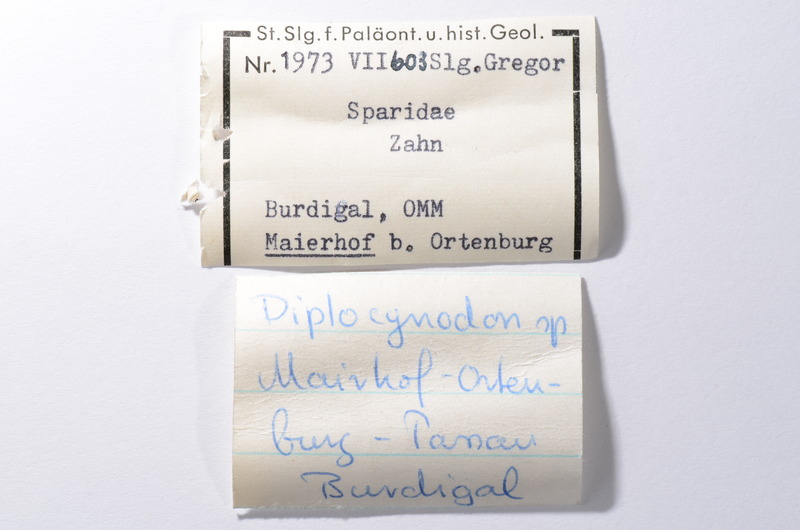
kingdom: Animalia
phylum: Chordata
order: Perciformes
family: Sparidae
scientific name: Sparidae
